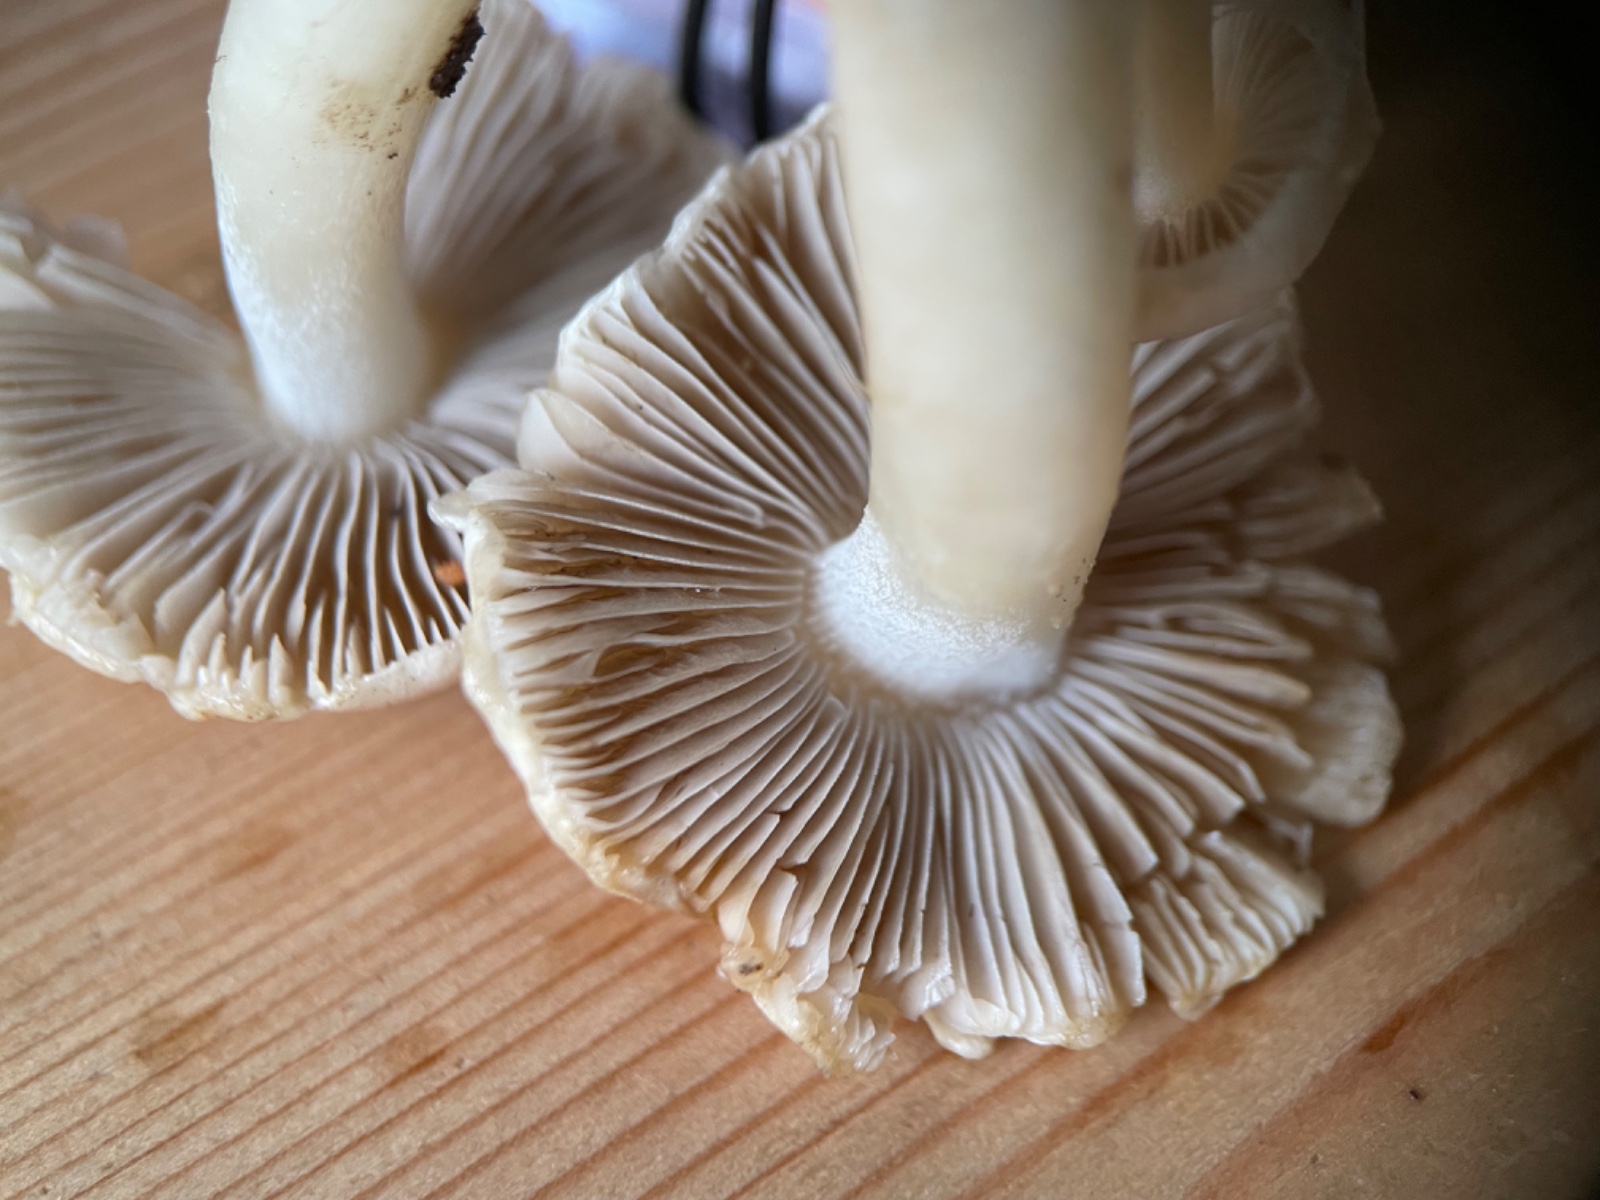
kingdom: Fungi
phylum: Basidiomycota
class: Agaricomycetes
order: Agaricales
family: Inocybaceae
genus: Inocybe
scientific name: Inocybe
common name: almindelig trævlhat
